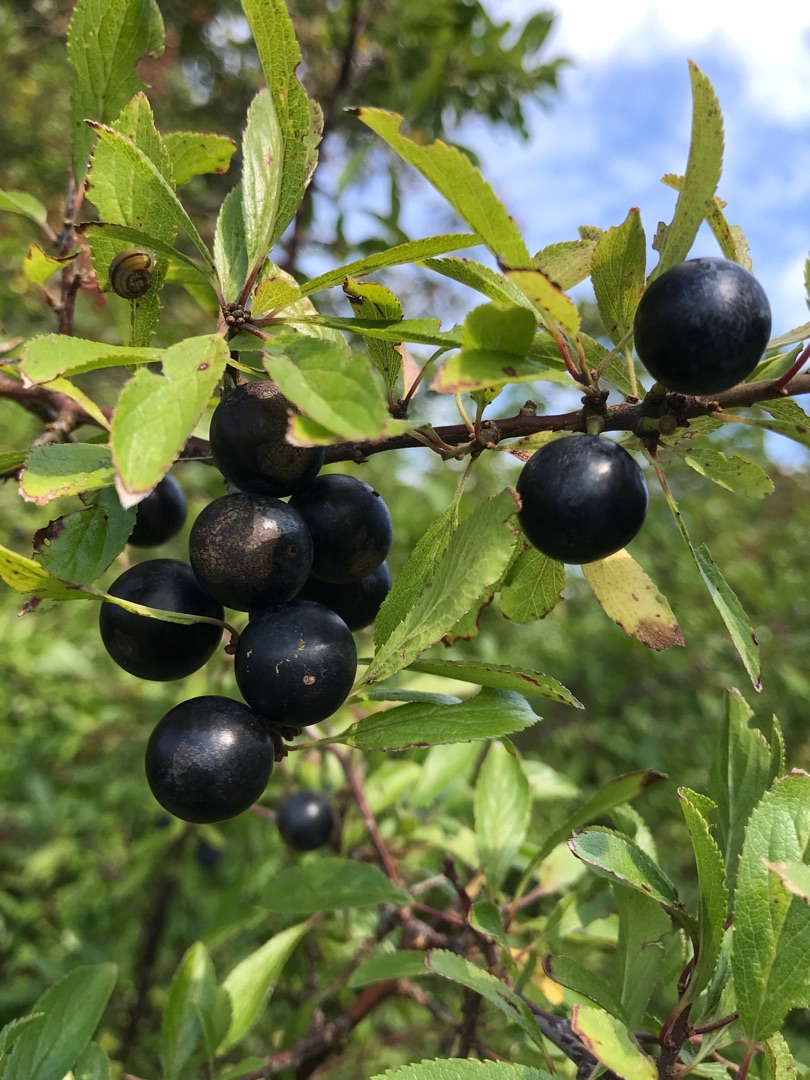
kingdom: Plantae
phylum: Tracheophyta
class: Magnoliopsida
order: Rosales
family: Rosaceae
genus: Prunus
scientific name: Prunus spinosa
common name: Slåen
